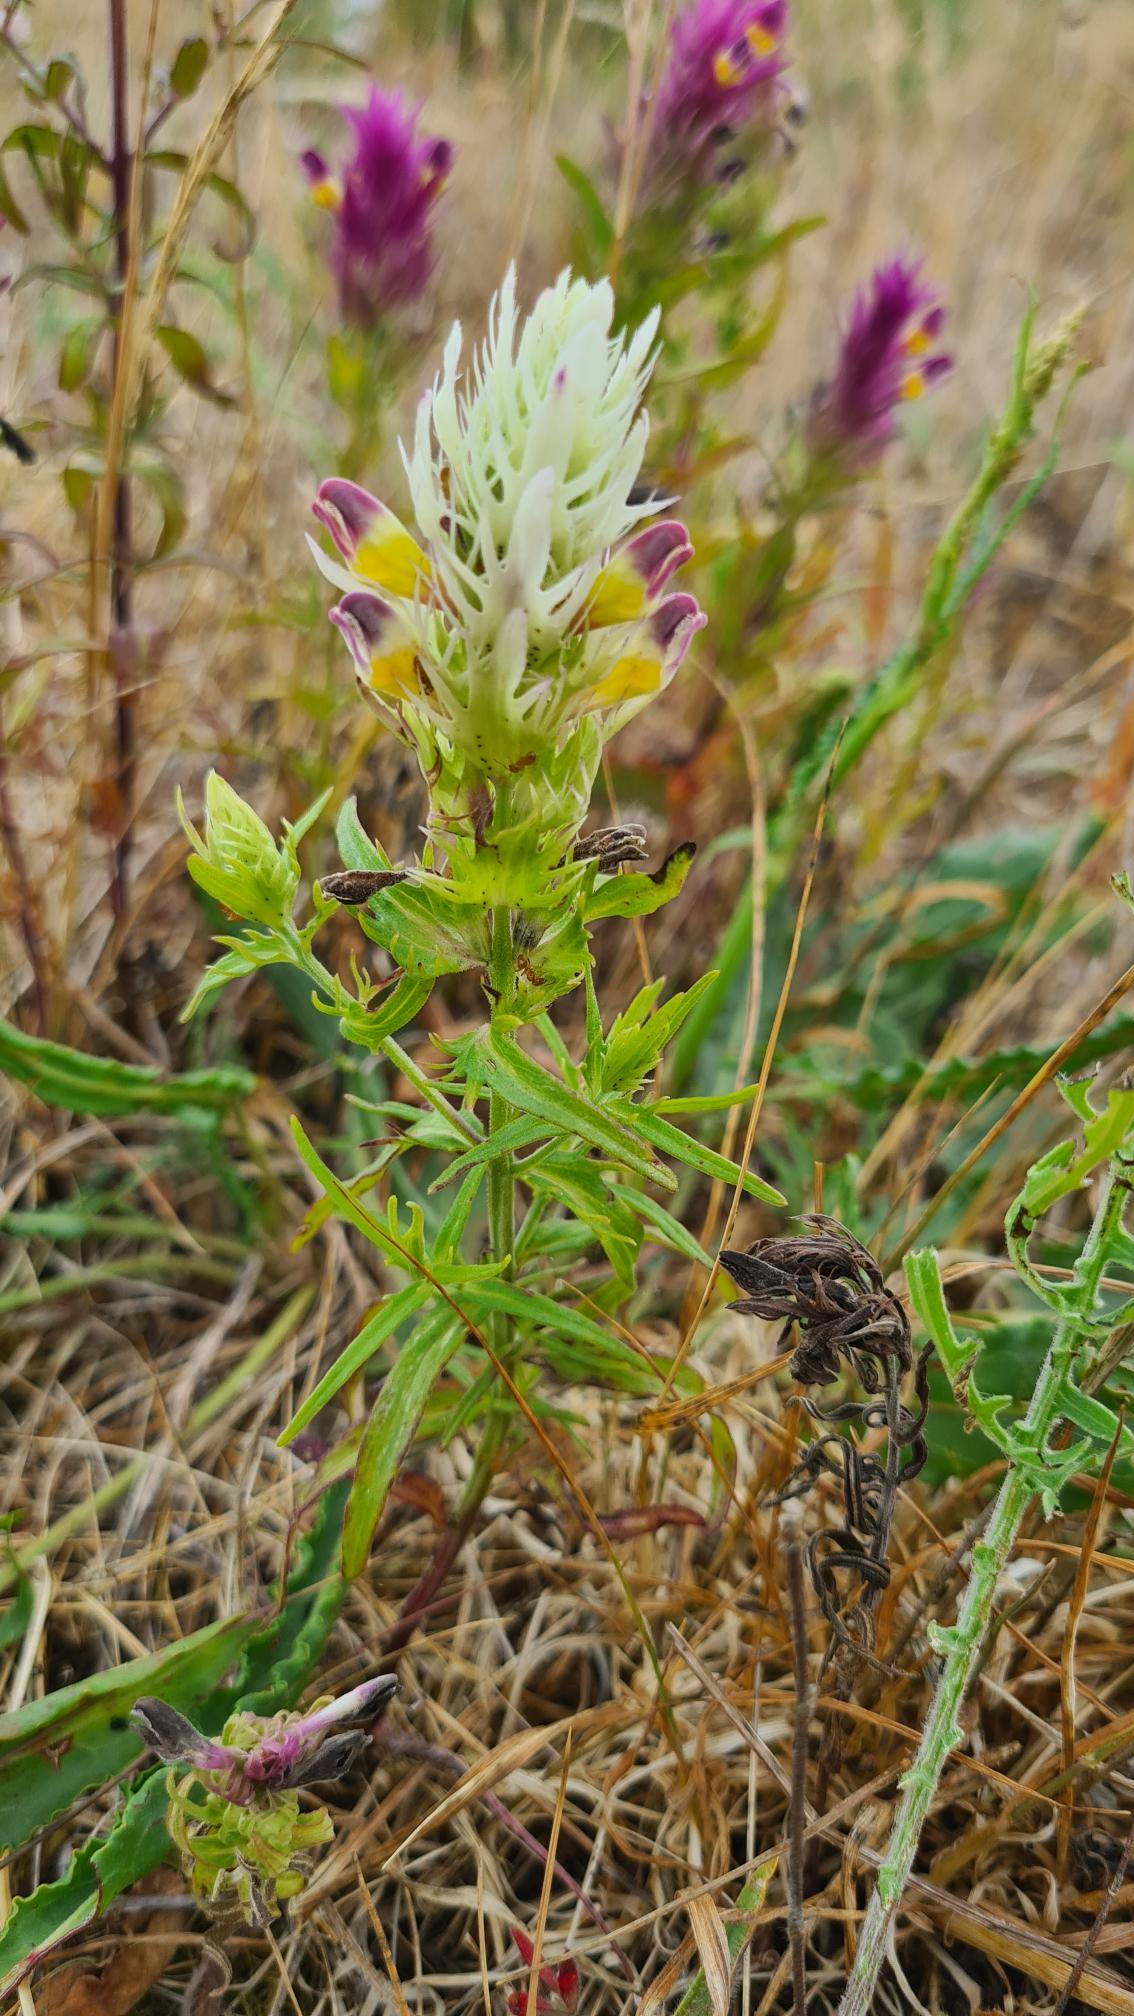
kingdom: Plantae
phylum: Tracheophyta
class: Magnoliopsida
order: Lamiales
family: Orobanchaceae
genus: Melampyrum
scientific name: Melampyrum arvense
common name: Ager-kohvede
